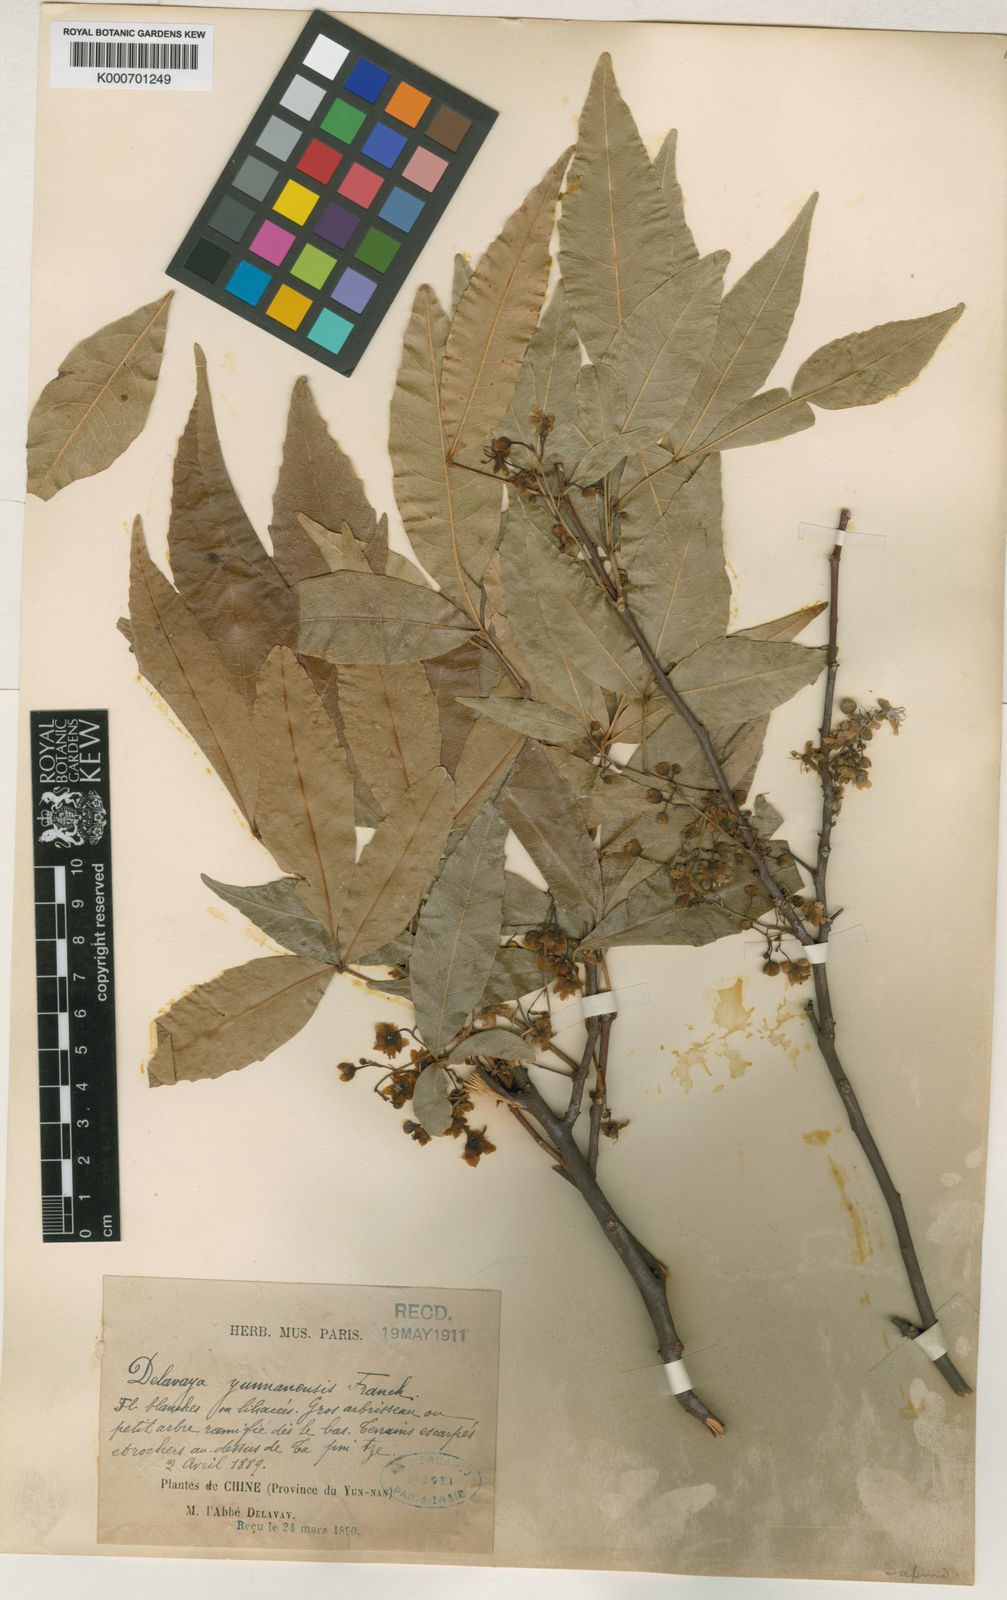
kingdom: Plantae
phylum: Tracheophyta
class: Magnoliopsida
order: Sapindales
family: Sapindaceae
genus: Delavaya
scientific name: Delavaya toxocarpa
